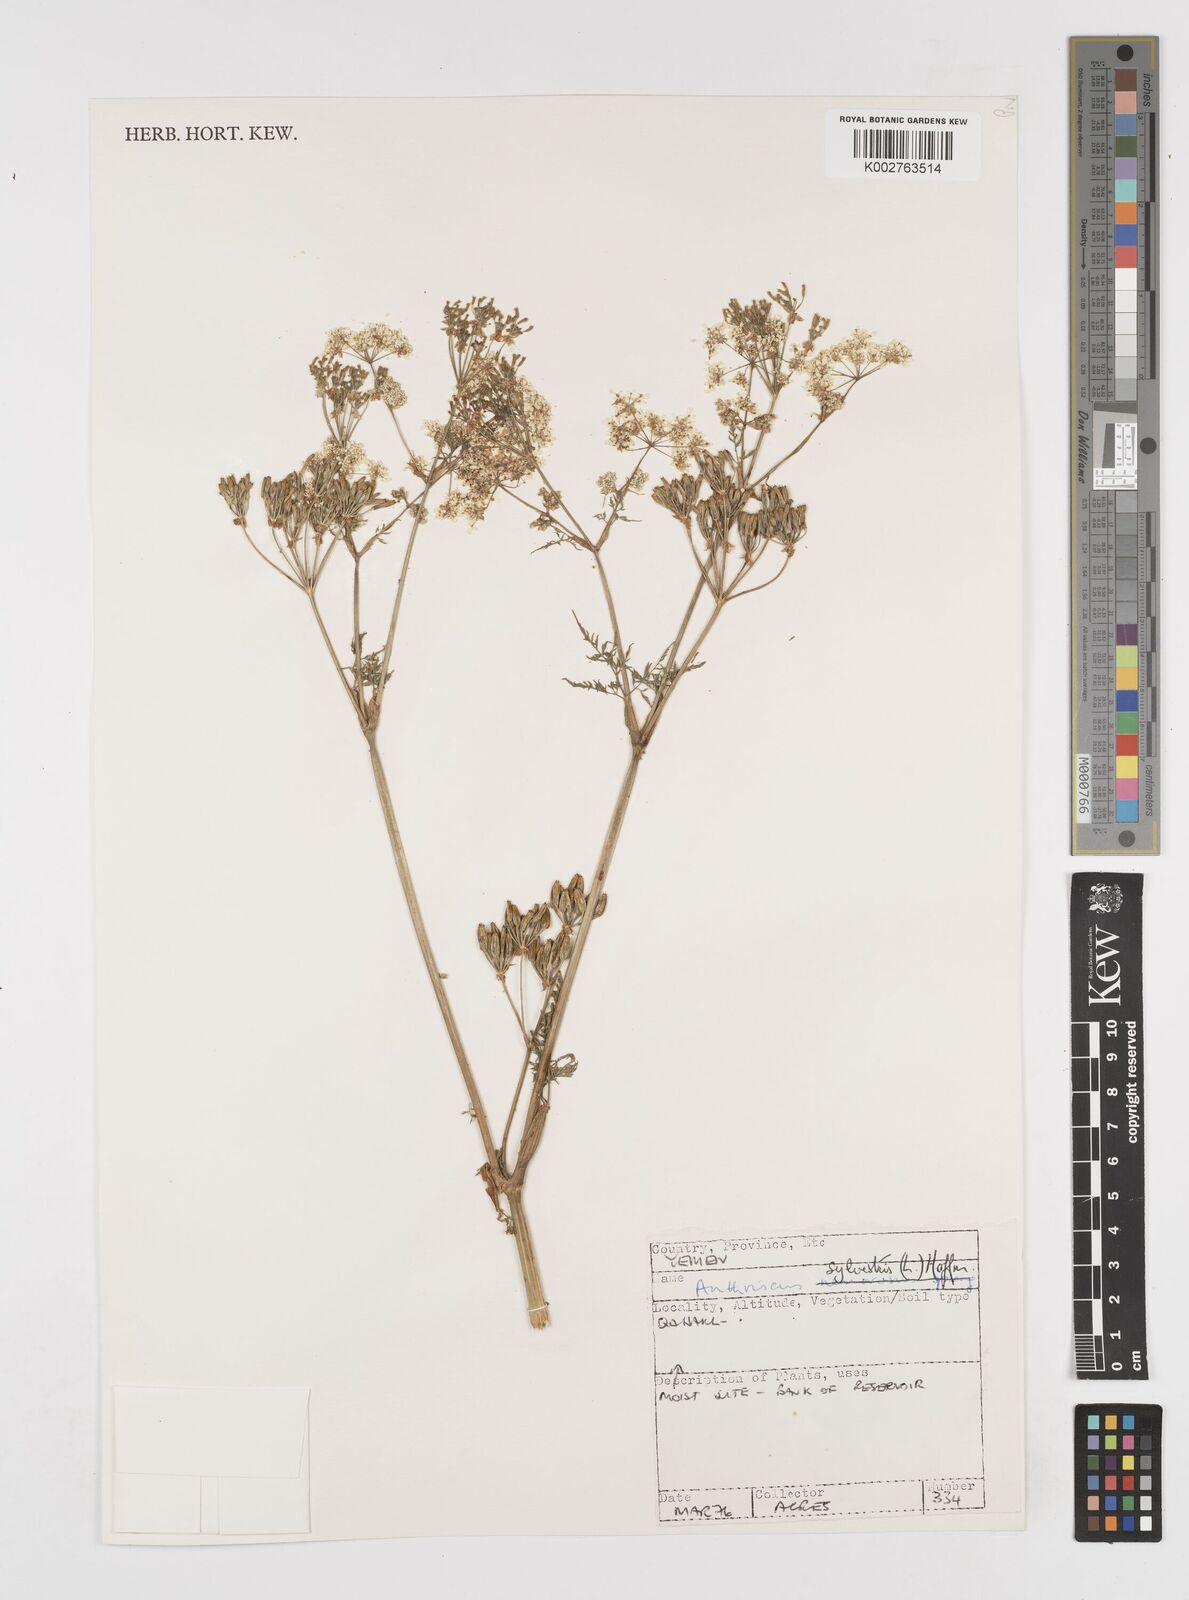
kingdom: Plantae
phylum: Tracheophyta
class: Magnoliopsida
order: Apiales
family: Apiaceae
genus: Anthriscus
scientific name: Anthriscus sylvestris
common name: Cow parsley
